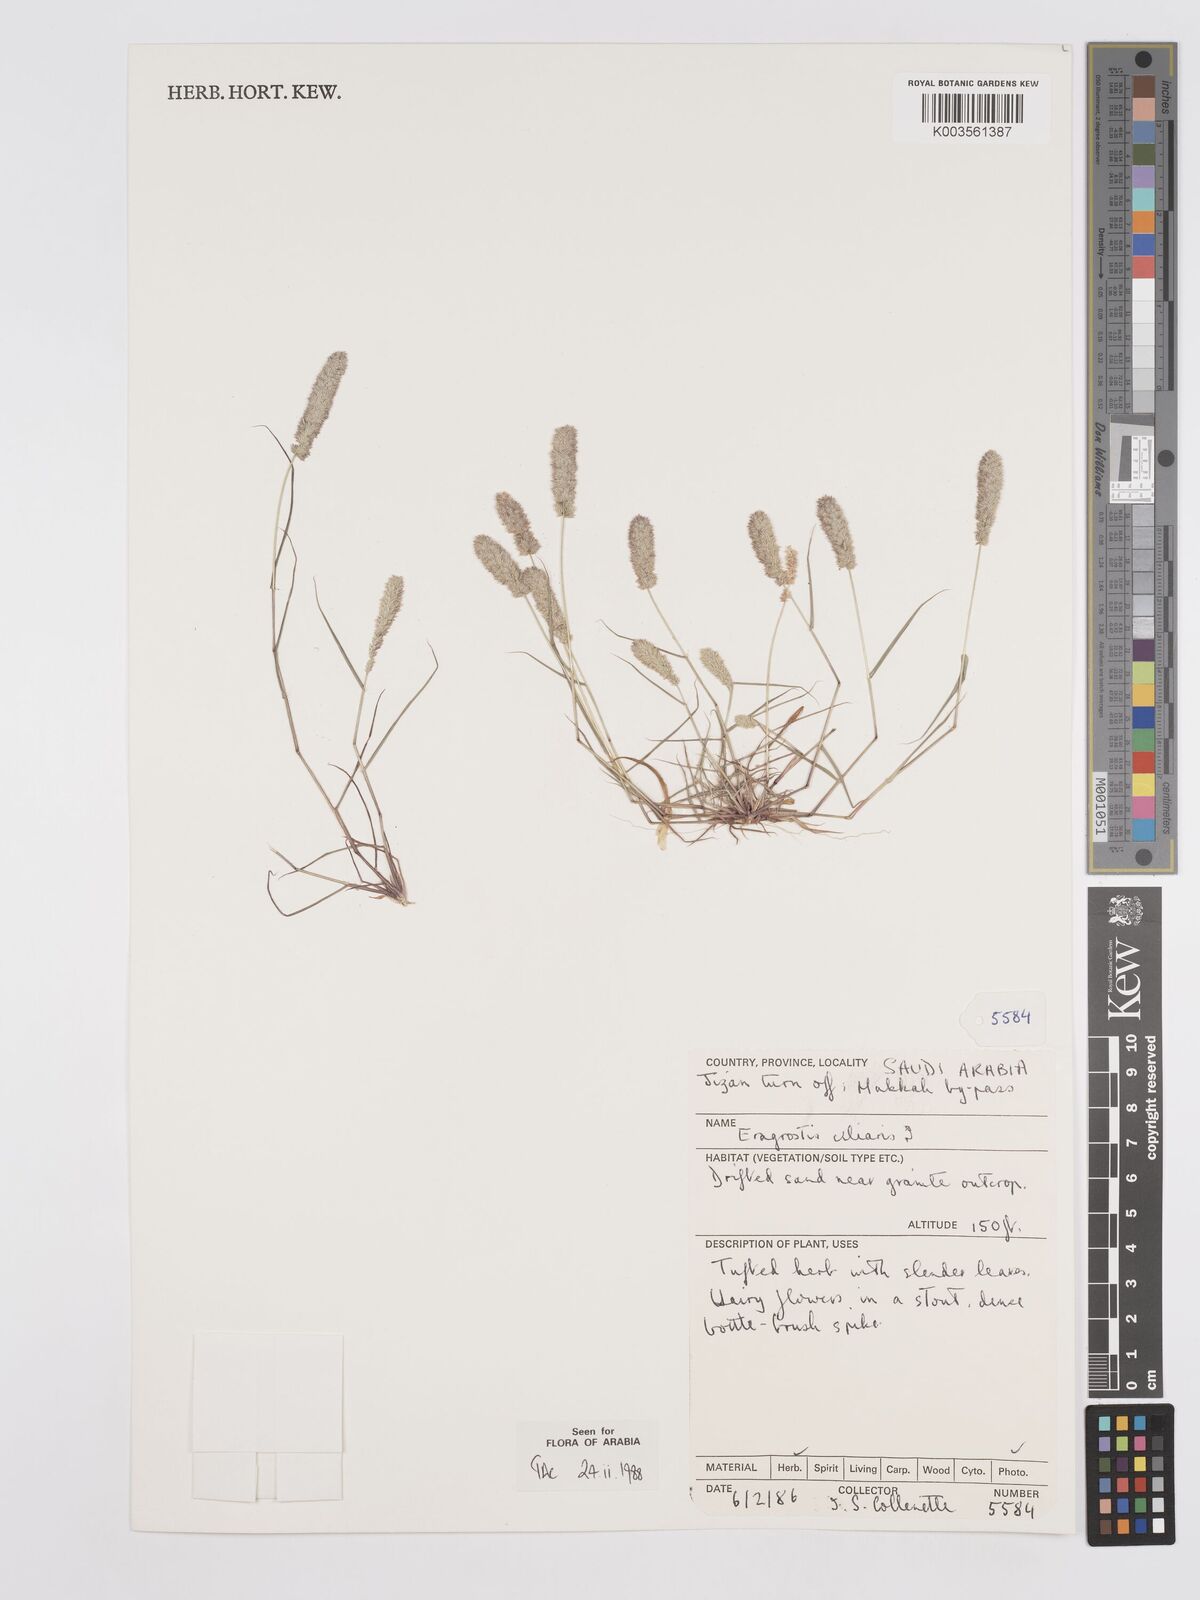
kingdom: Plantae
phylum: Tracheophyta
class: Liliopsida
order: Poales
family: Poaceae
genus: Eragrostis
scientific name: Eragrostis ciliaris
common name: Gophertail lovegrass
